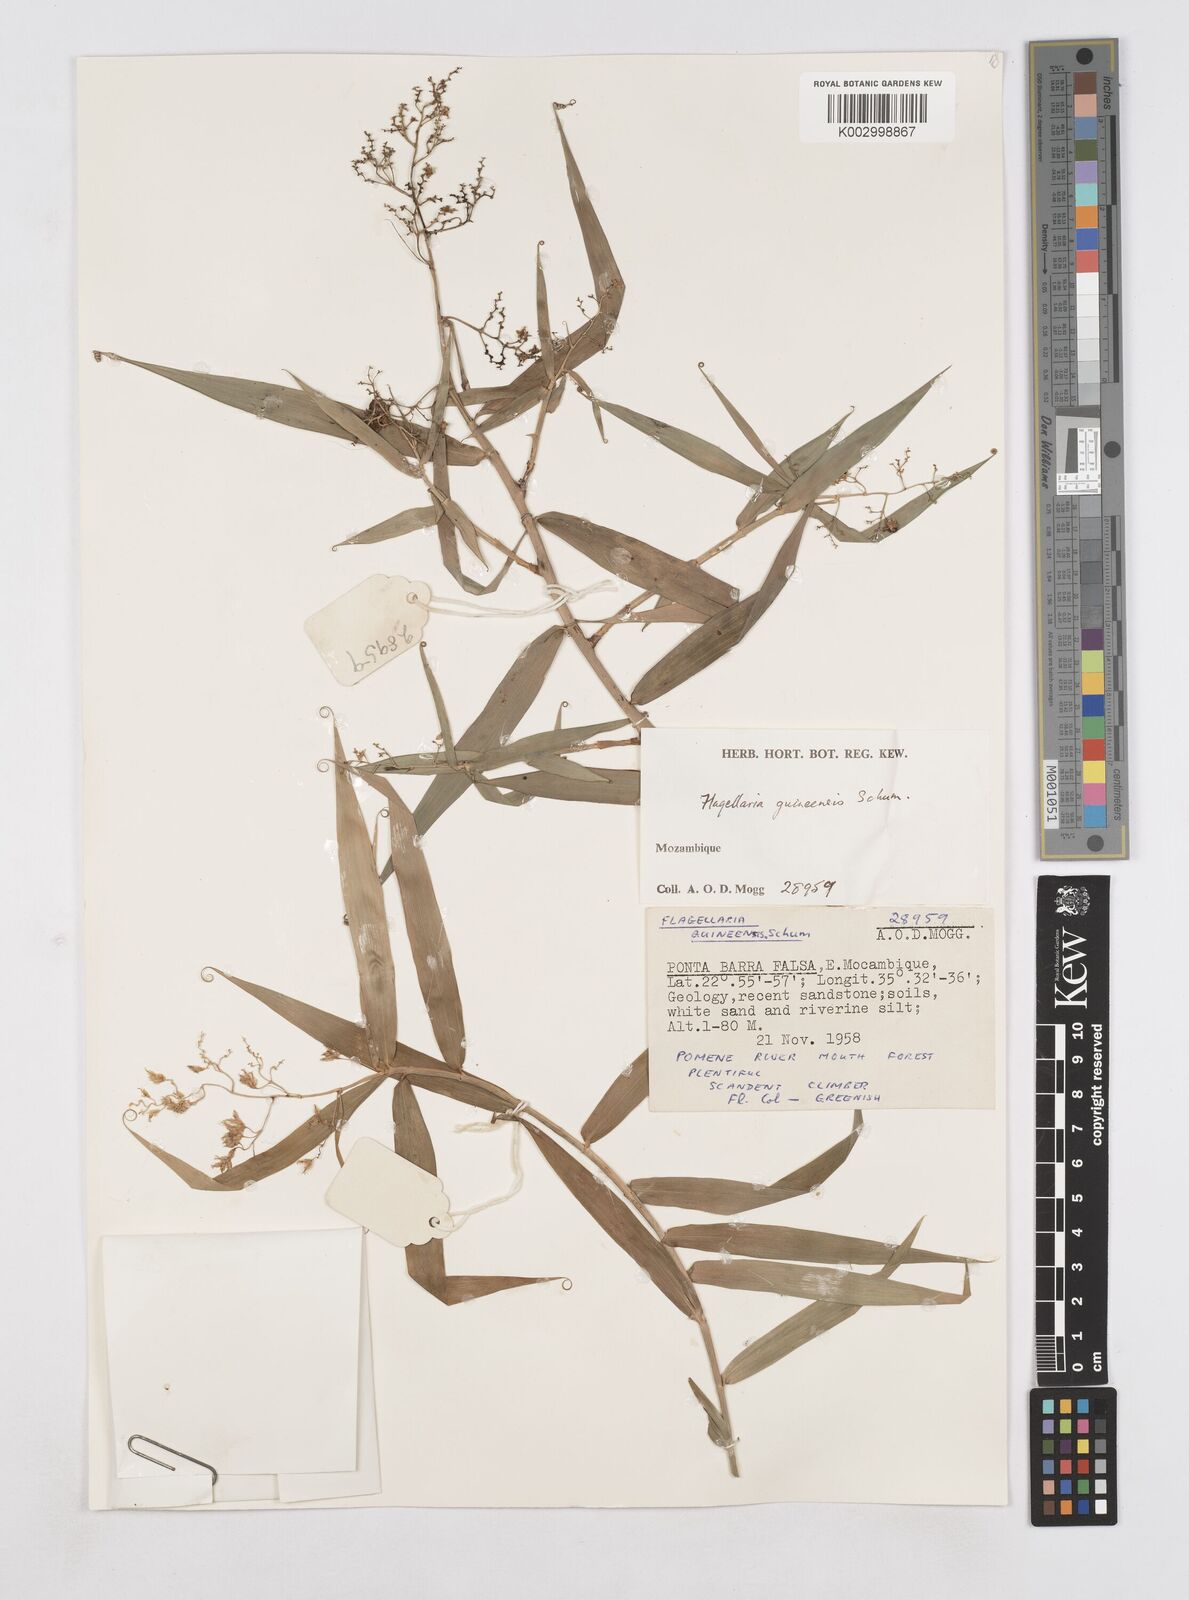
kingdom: Plantae
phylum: Tracheophyta
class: Liliopsida
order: Poales
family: Flagellariaceae
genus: Flagellaria
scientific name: Flagellaria guineensis
